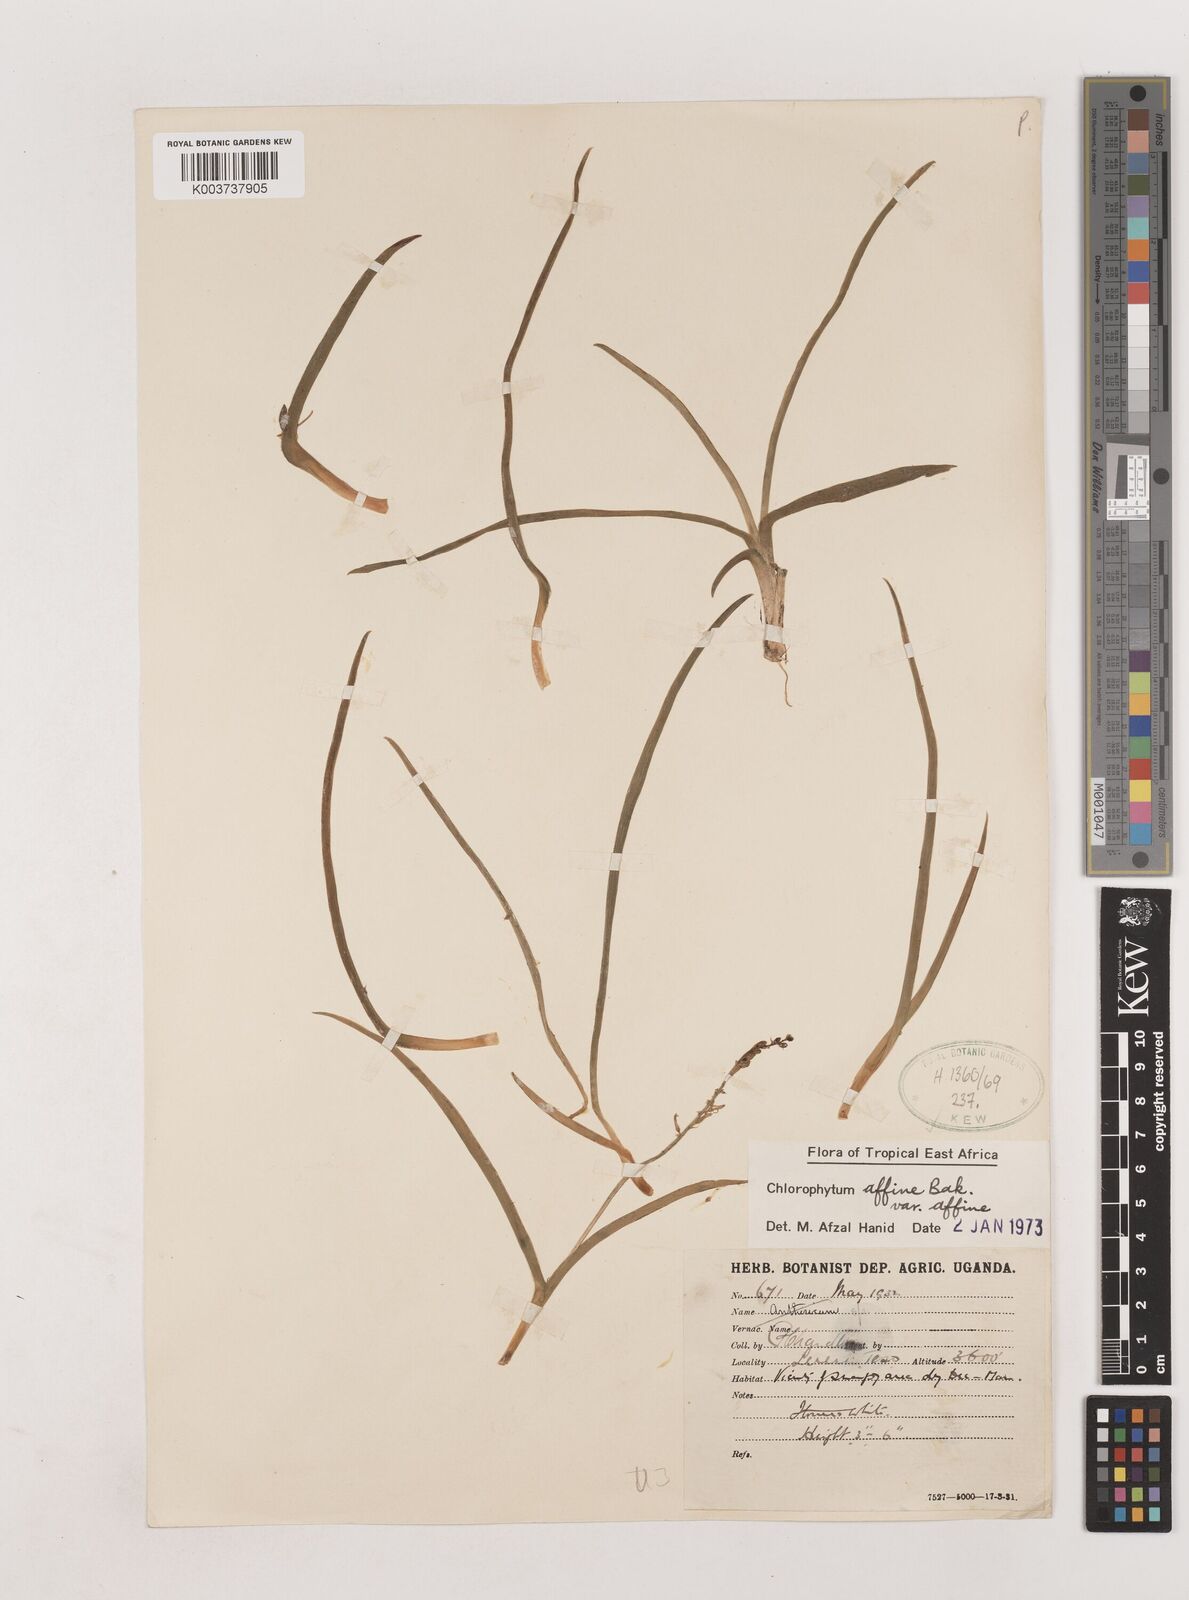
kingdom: Plantae
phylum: Tracheophyta
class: Liliopsida
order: Asparagales
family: Asparagaceae
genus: Chlorophytum
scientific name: Chlorophytum affine
